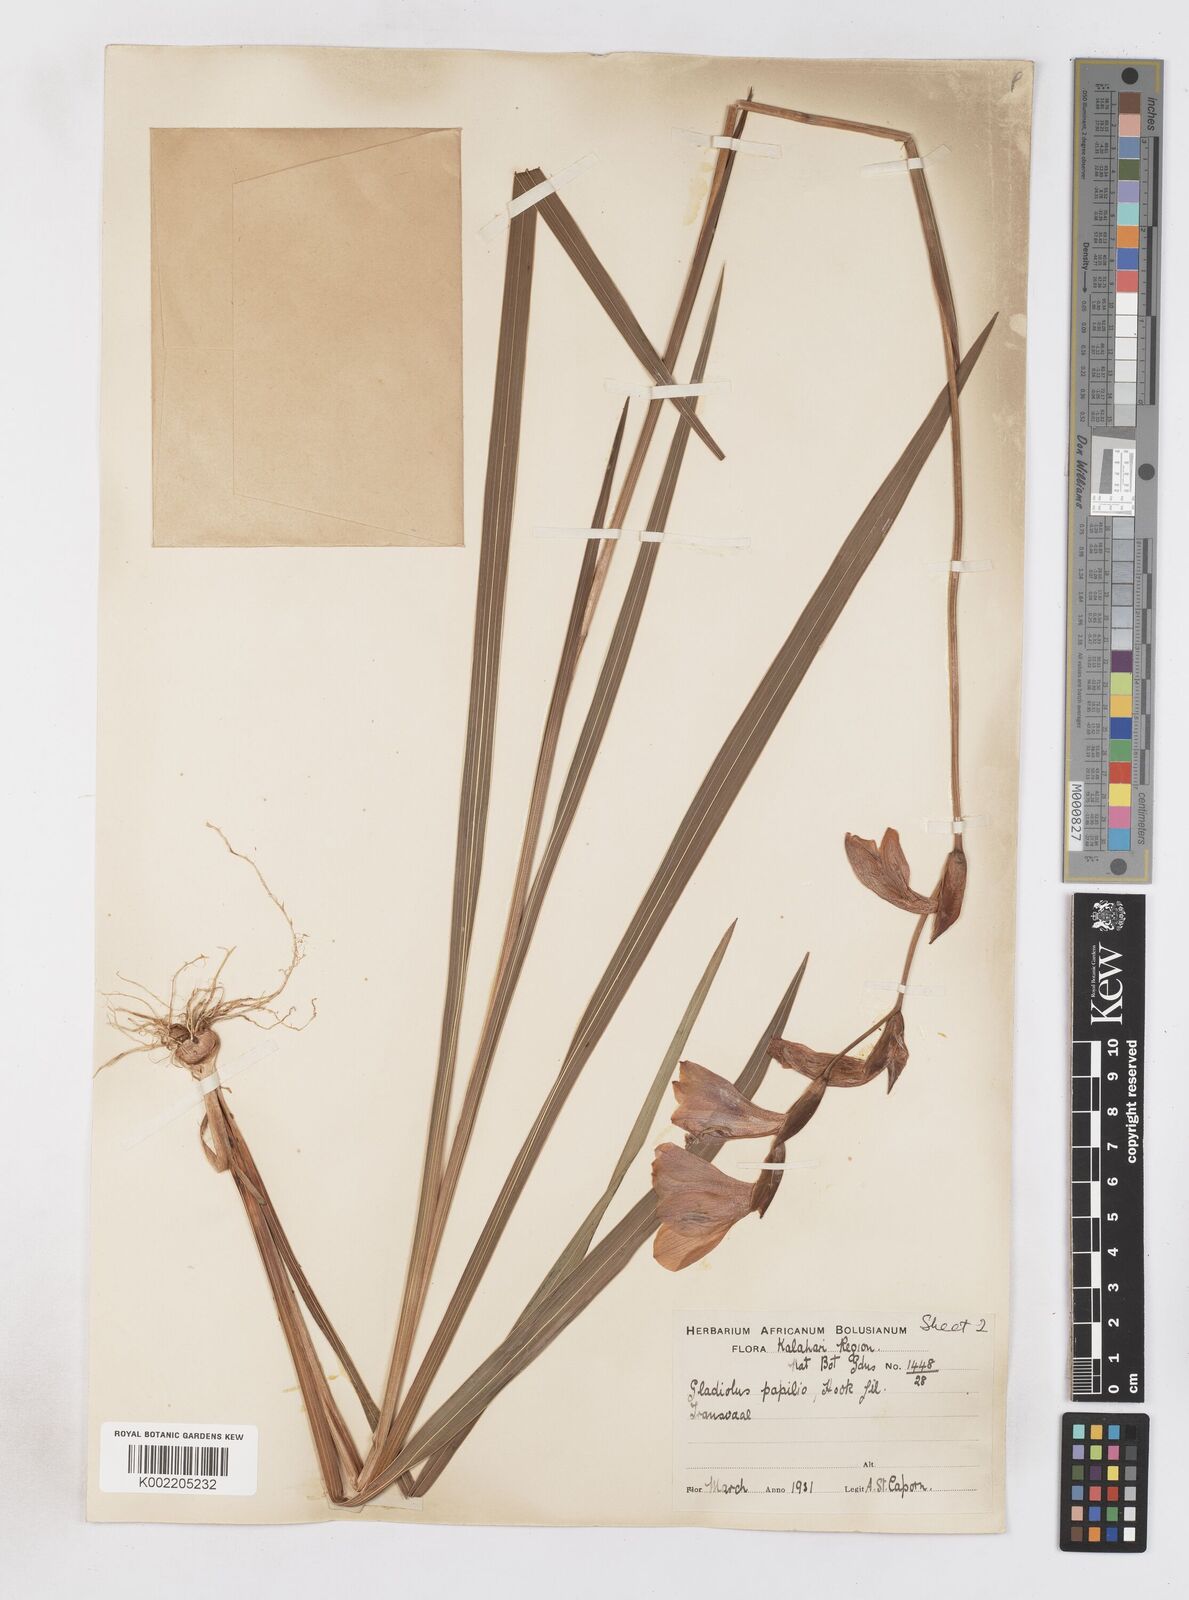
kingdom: Plantae
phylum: Tracheophyta
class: Liliopsida
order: Asparagales
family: Iridaceae
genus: Gladiolus
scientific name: Gladiolus papilio
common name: Goldblotch gladiolus
